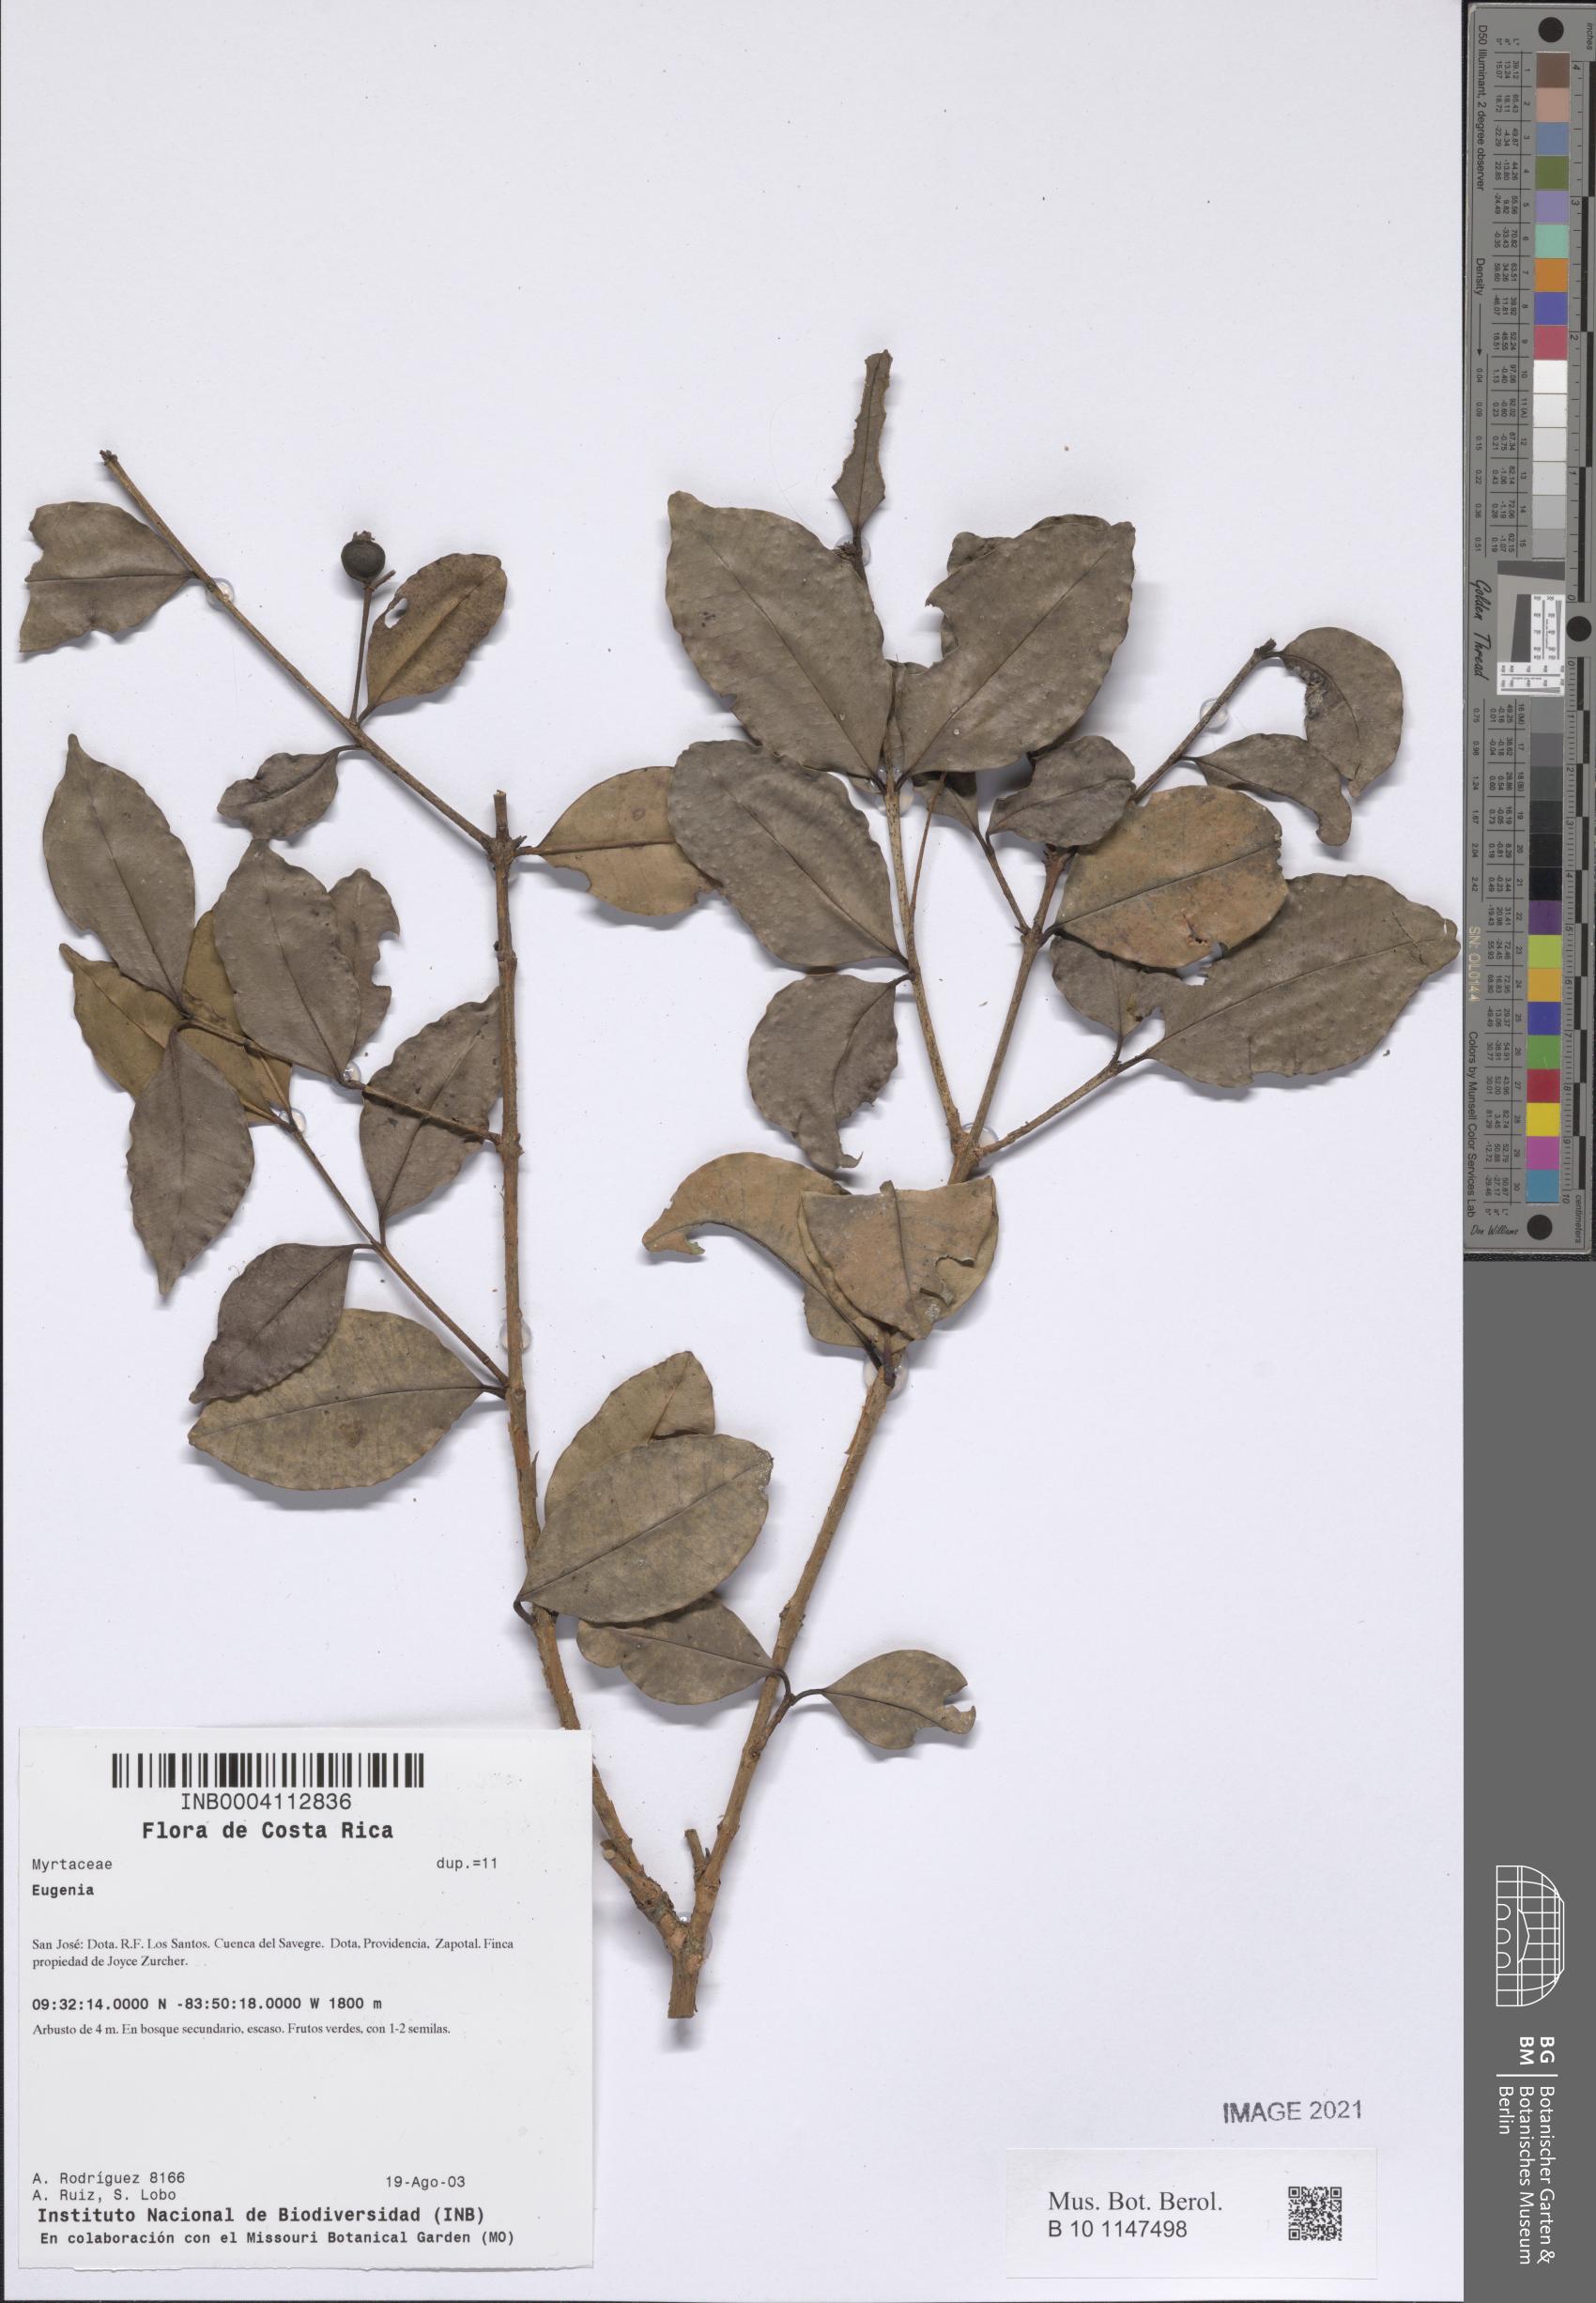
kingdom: Plantae
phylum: Tracheophyta
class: Magnoliopsida
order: Myrtales
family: Myrtaceae
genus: Myrcianthes
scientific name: Myrcianthes
